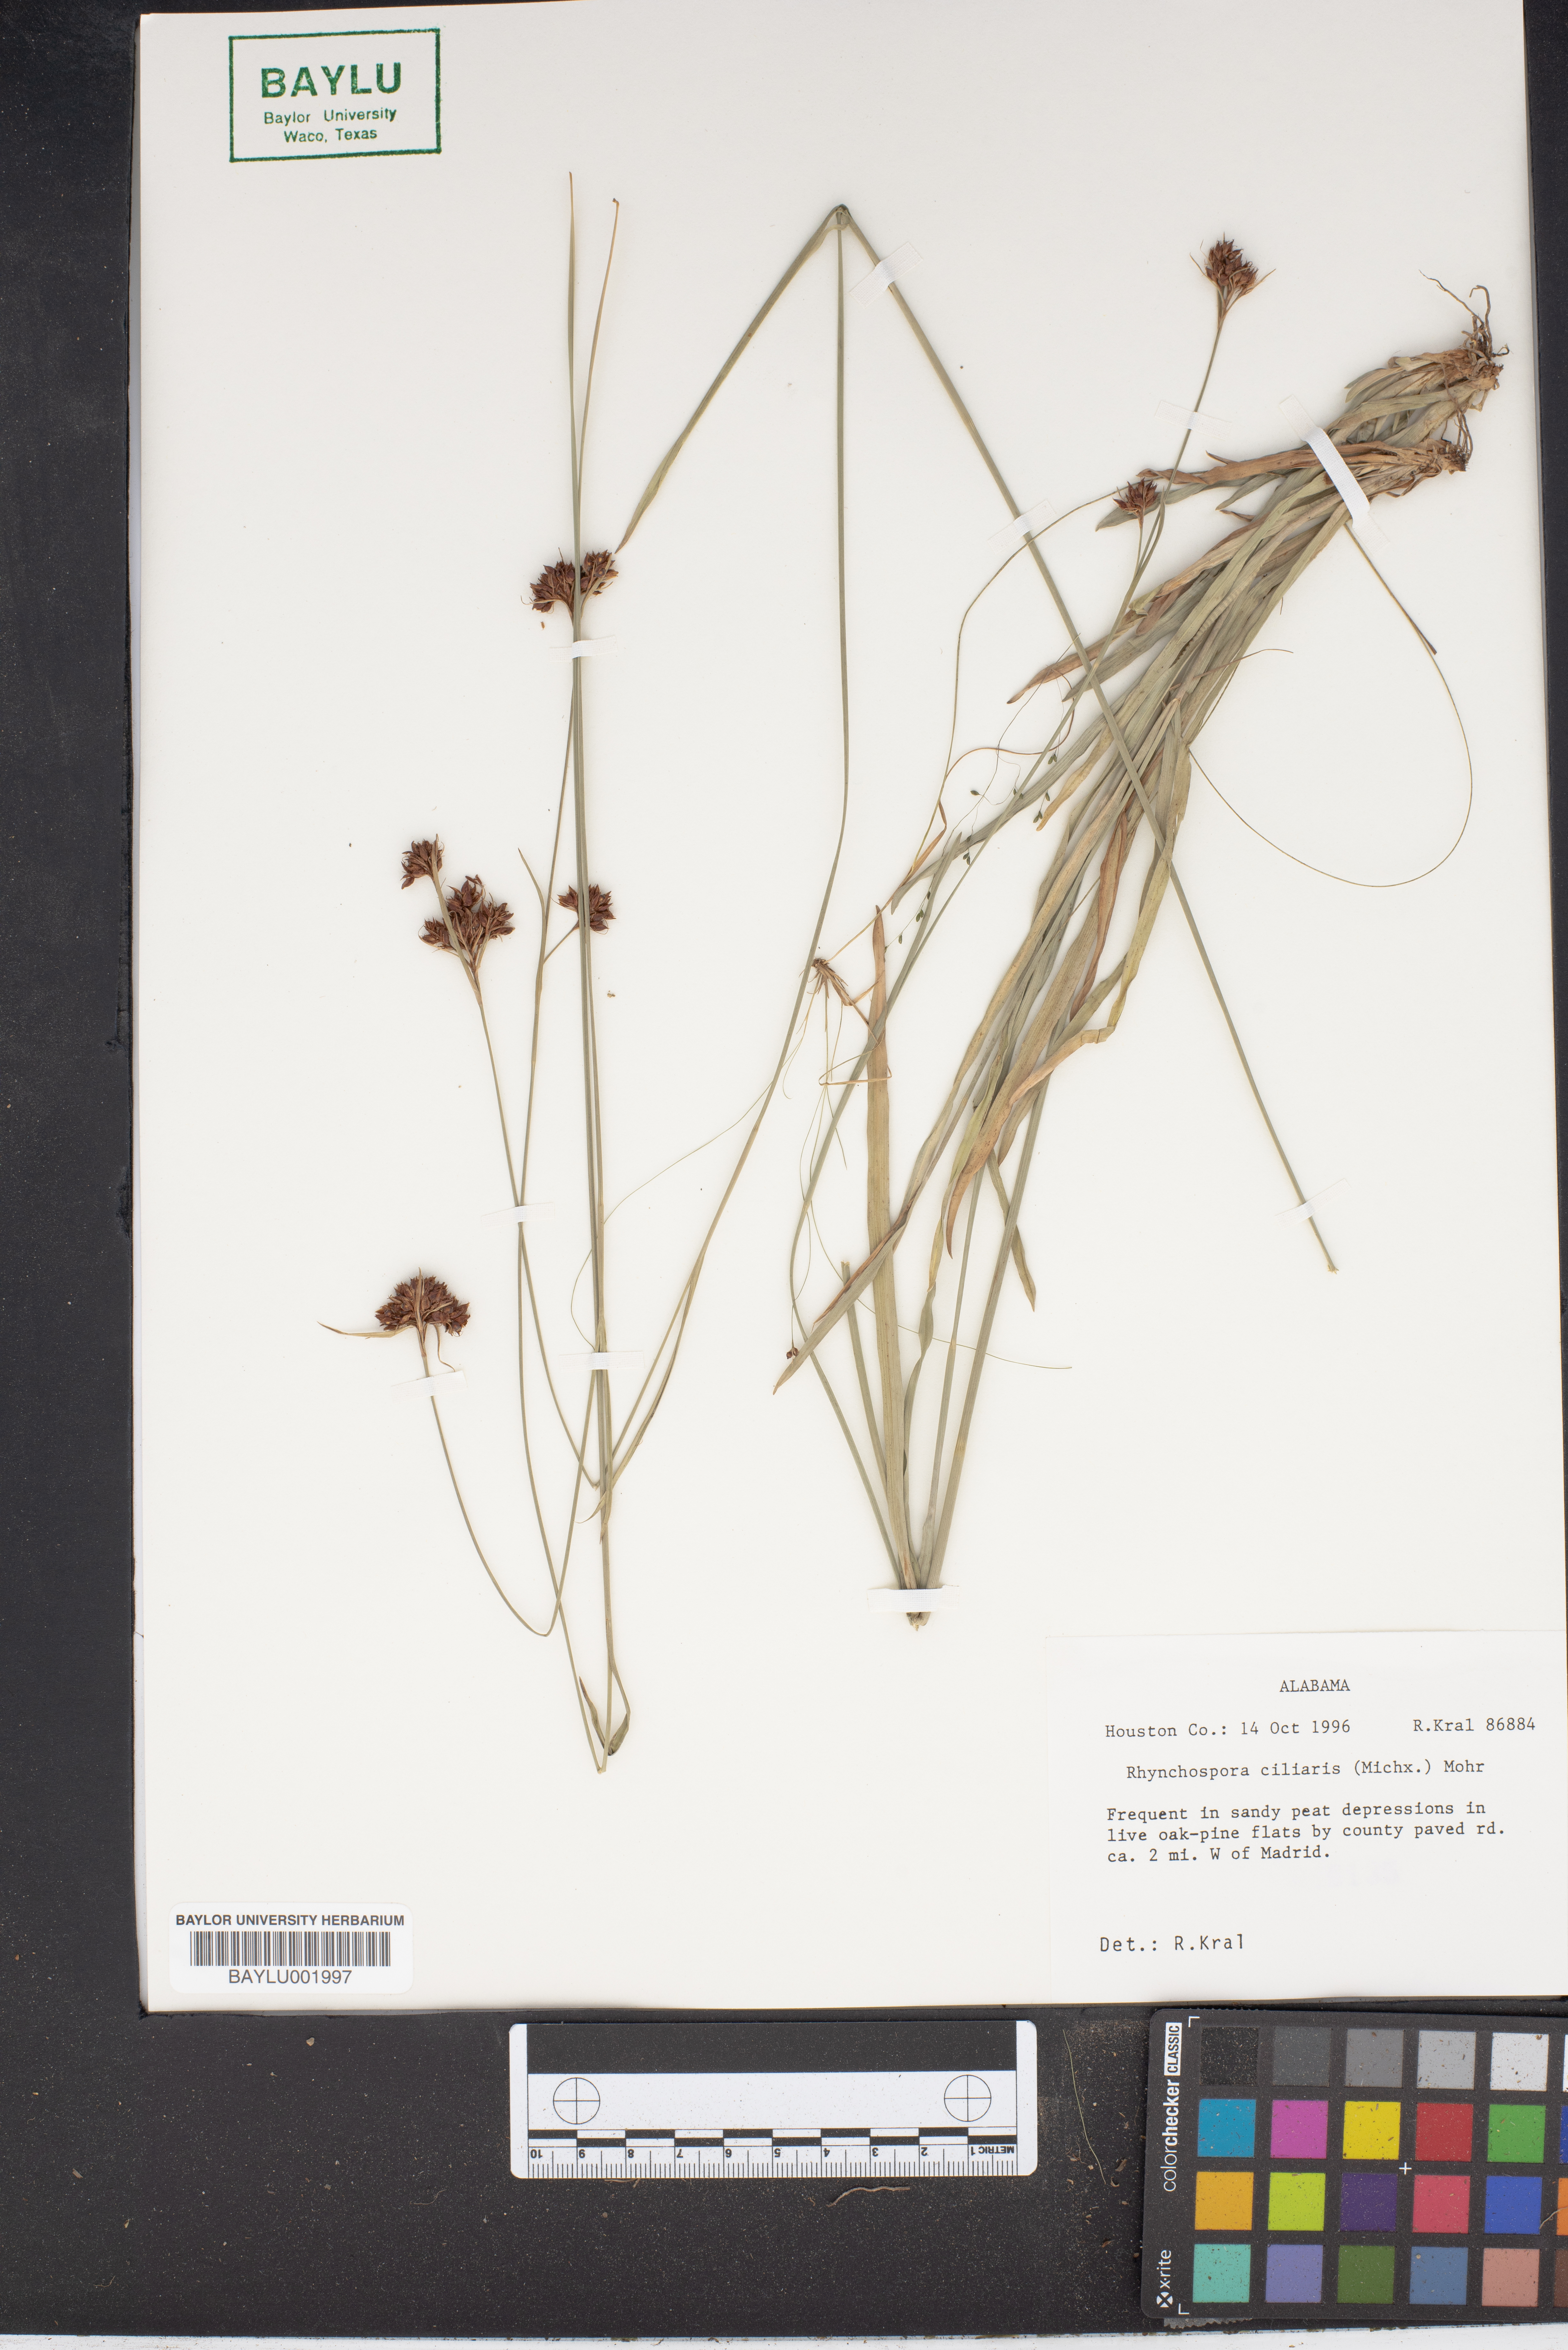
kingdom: Plantae
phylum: Tracheophyta
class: Liliopsida
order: Poales
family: Cyperaceae
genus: Rhynchospora
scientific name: Rhynchospora ciliaris
